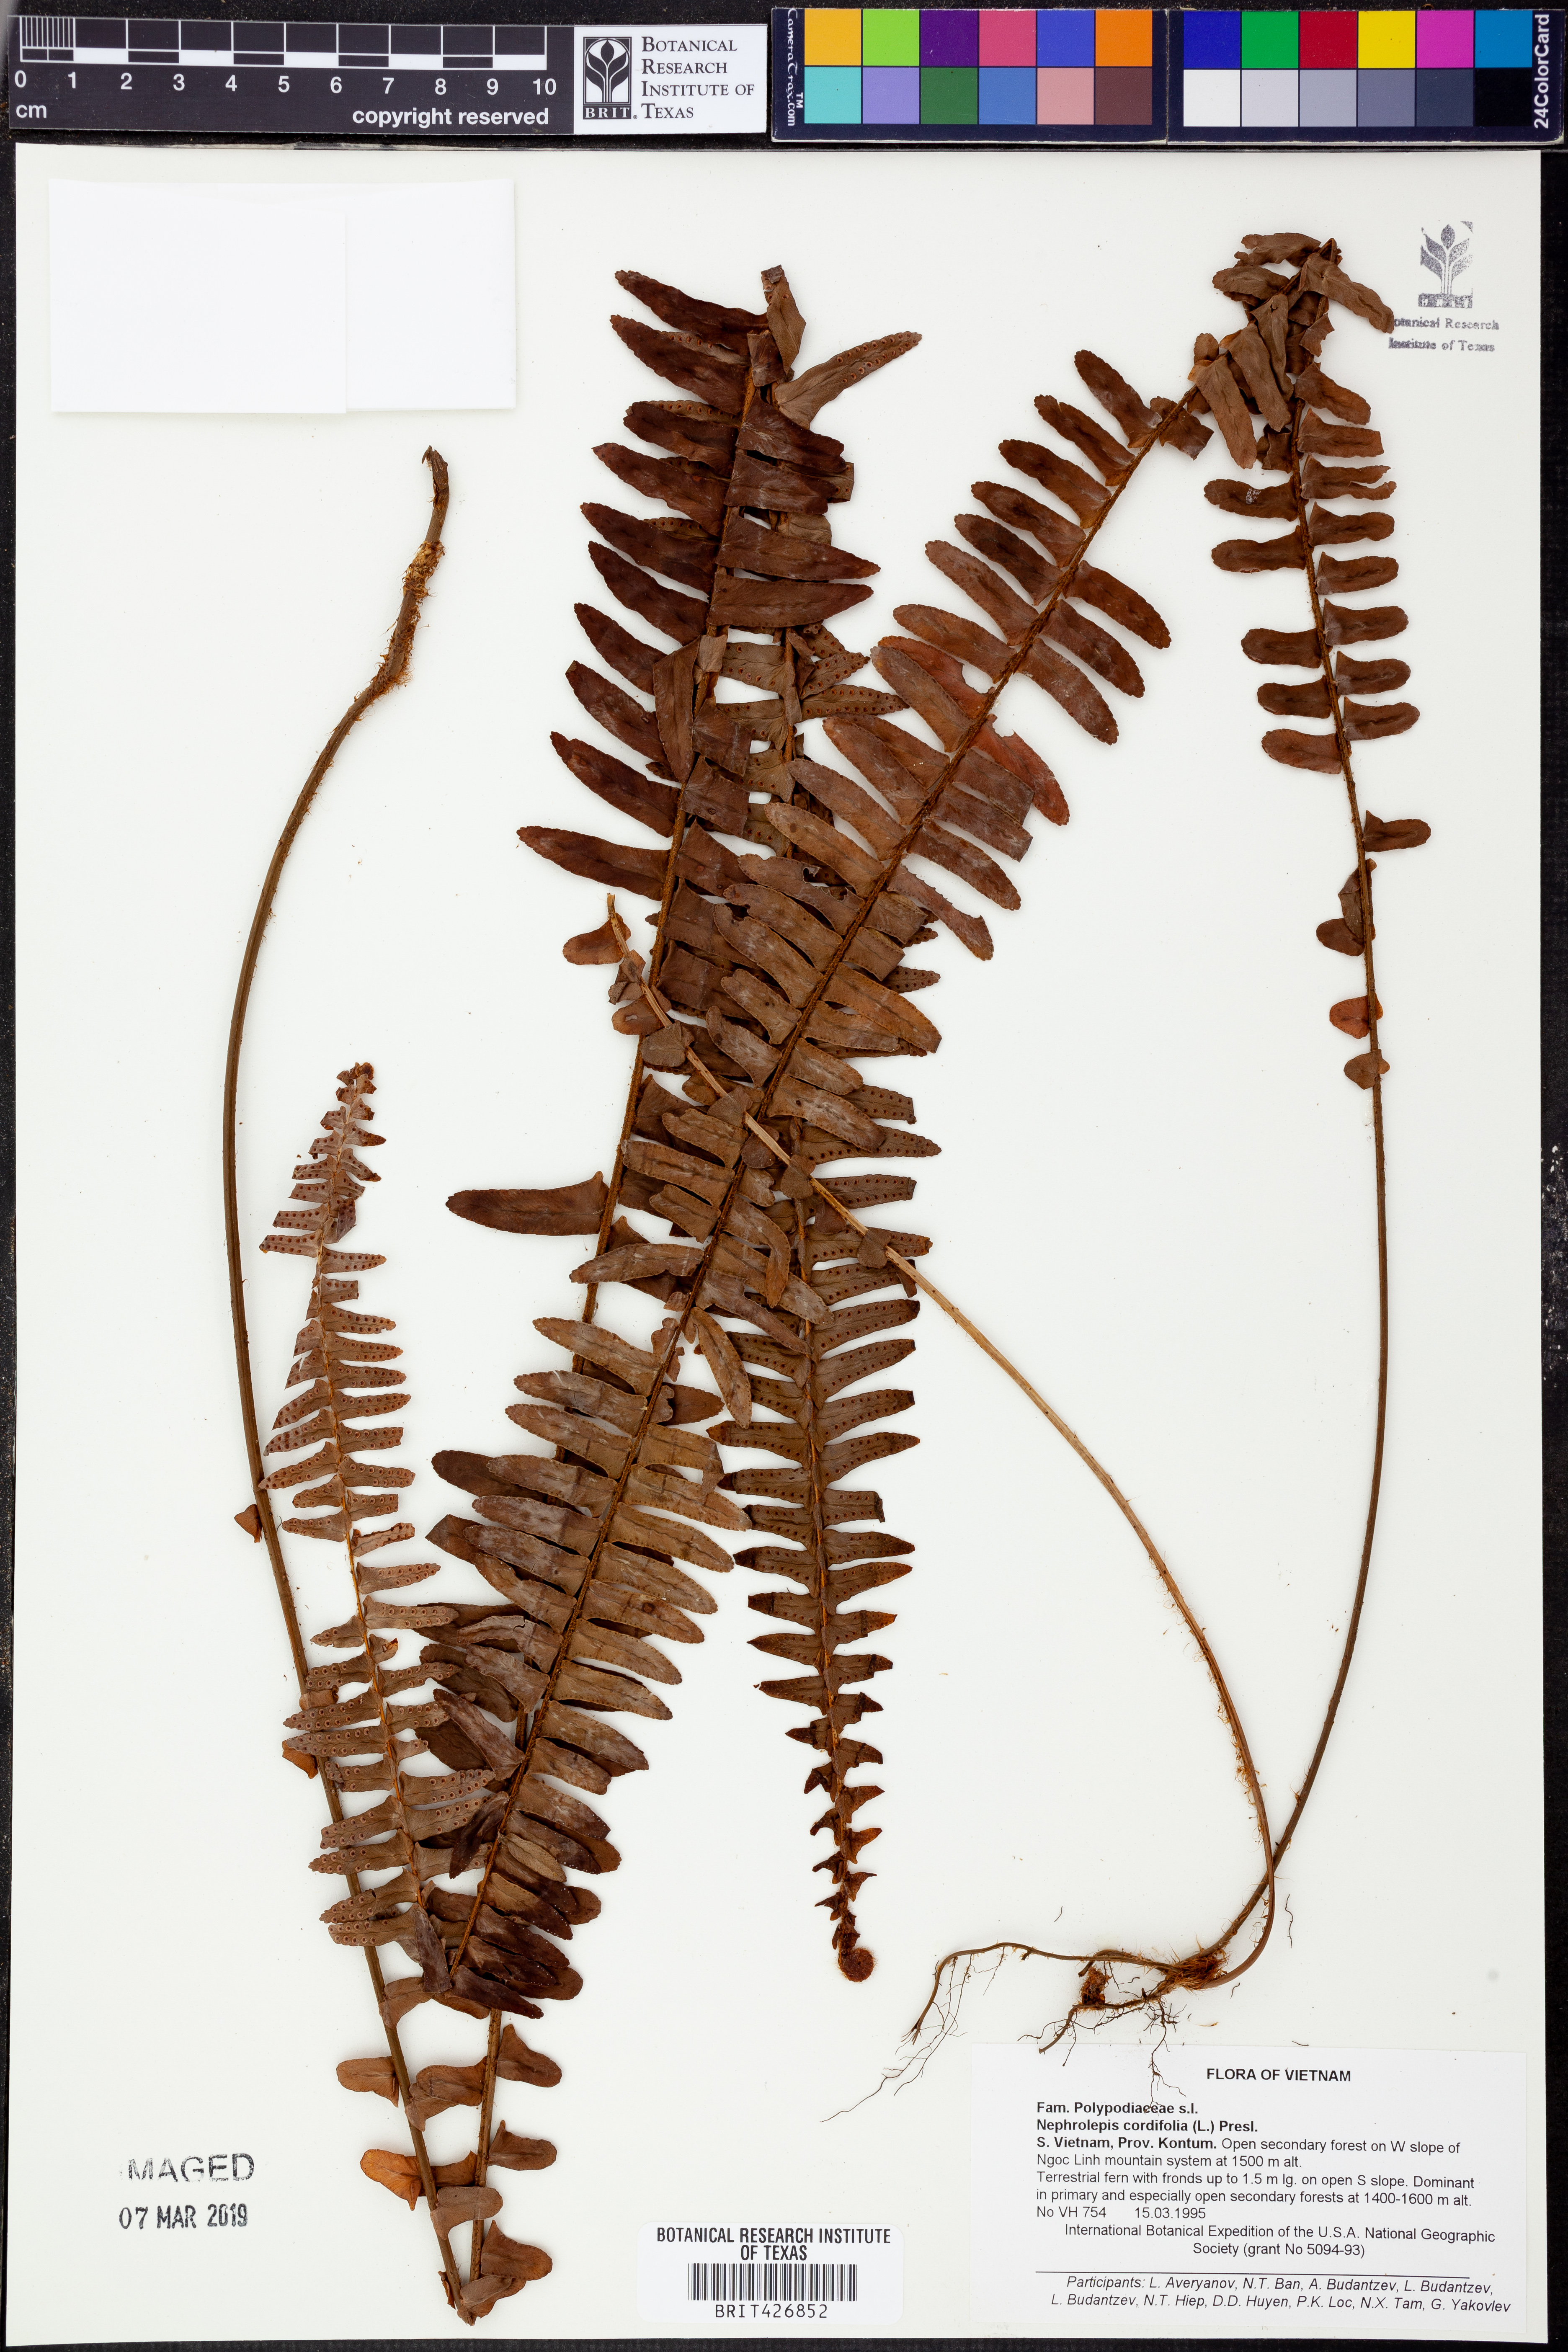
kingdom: Plantae
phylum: Tracheophyta
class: Polypodiopsida
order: Polypodiales
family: Nephrolepidaceae
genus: Nephrolepis
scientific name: Nephrolepis cordifolia
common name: Narrow swordfern
